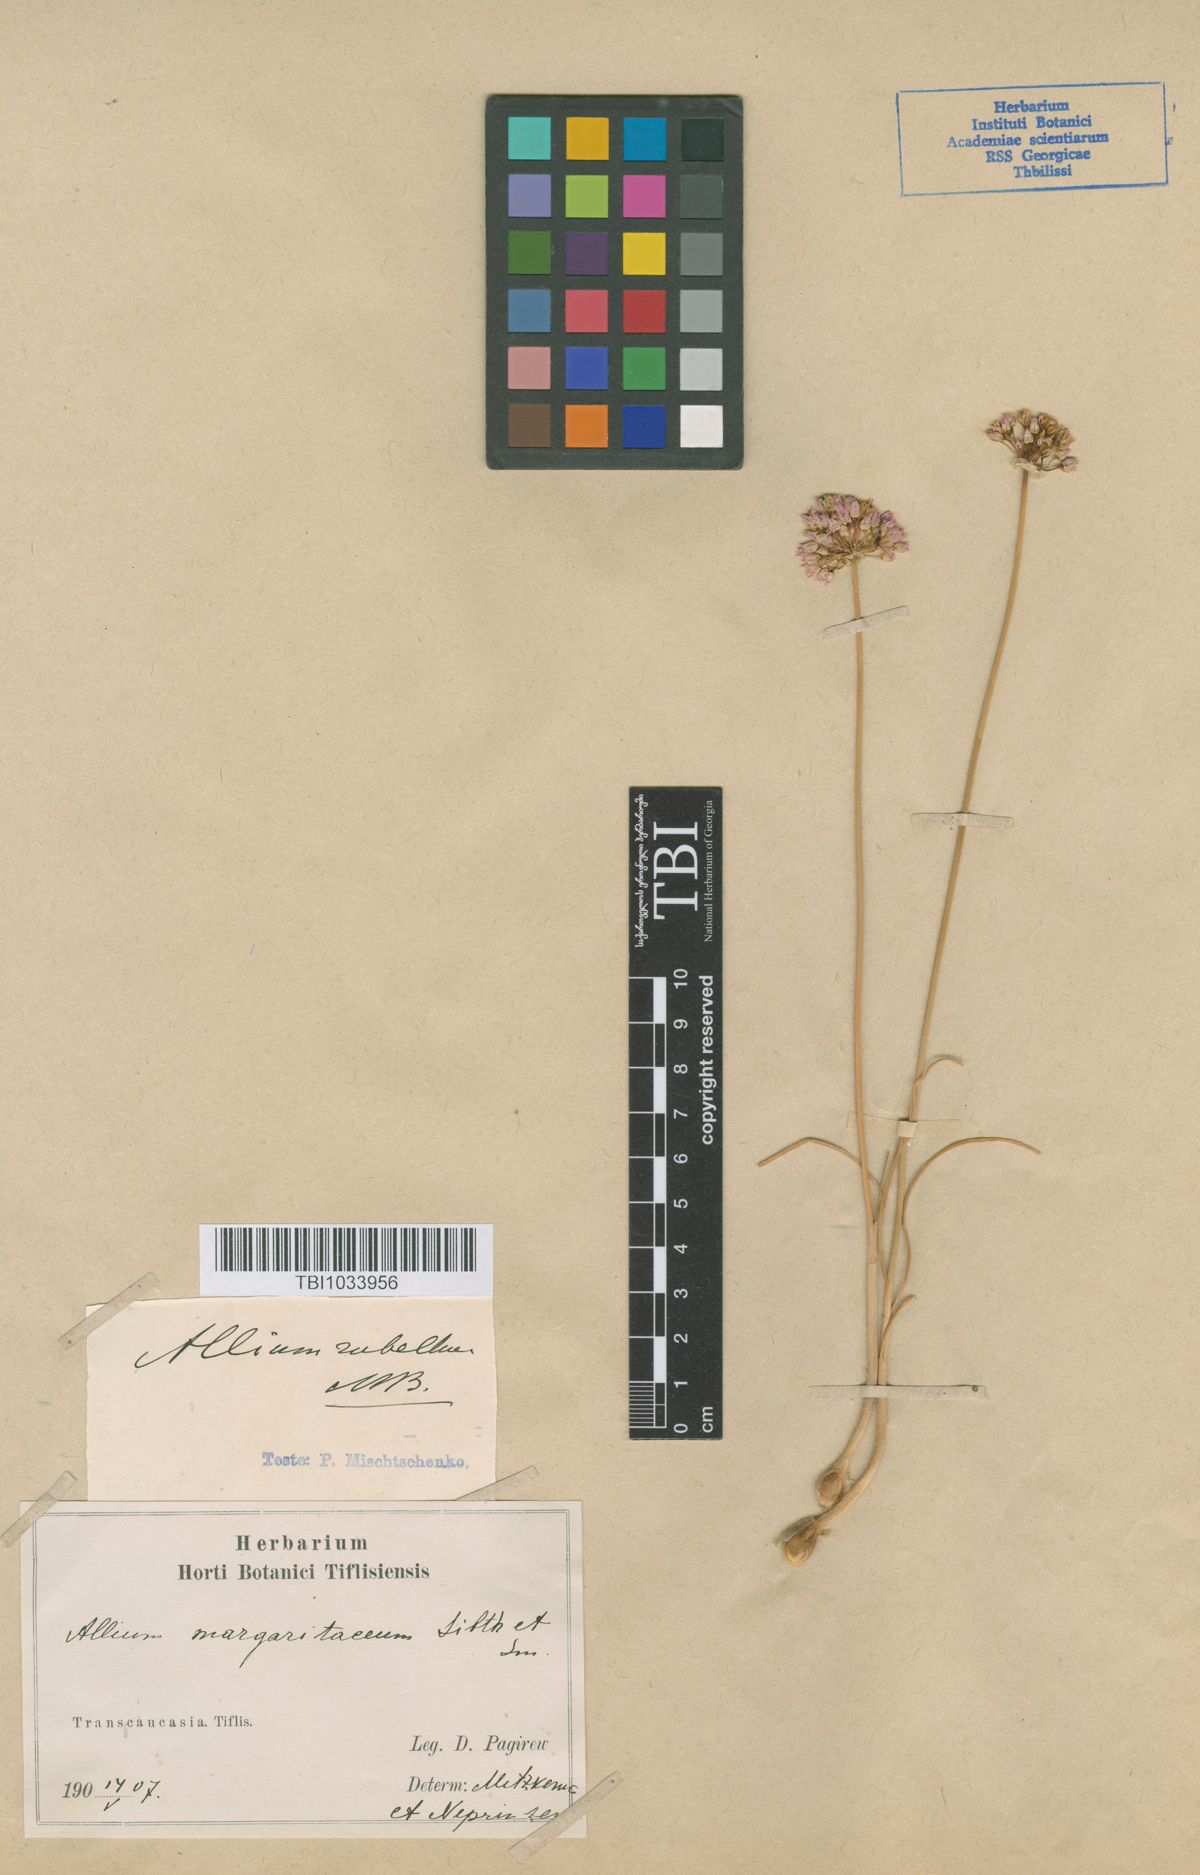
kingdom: Plantae
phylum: Tracheophyta
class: Liliopsida
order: Asparagales
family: Amaryllidaceae
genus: Allium
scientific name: Allium rubellum
